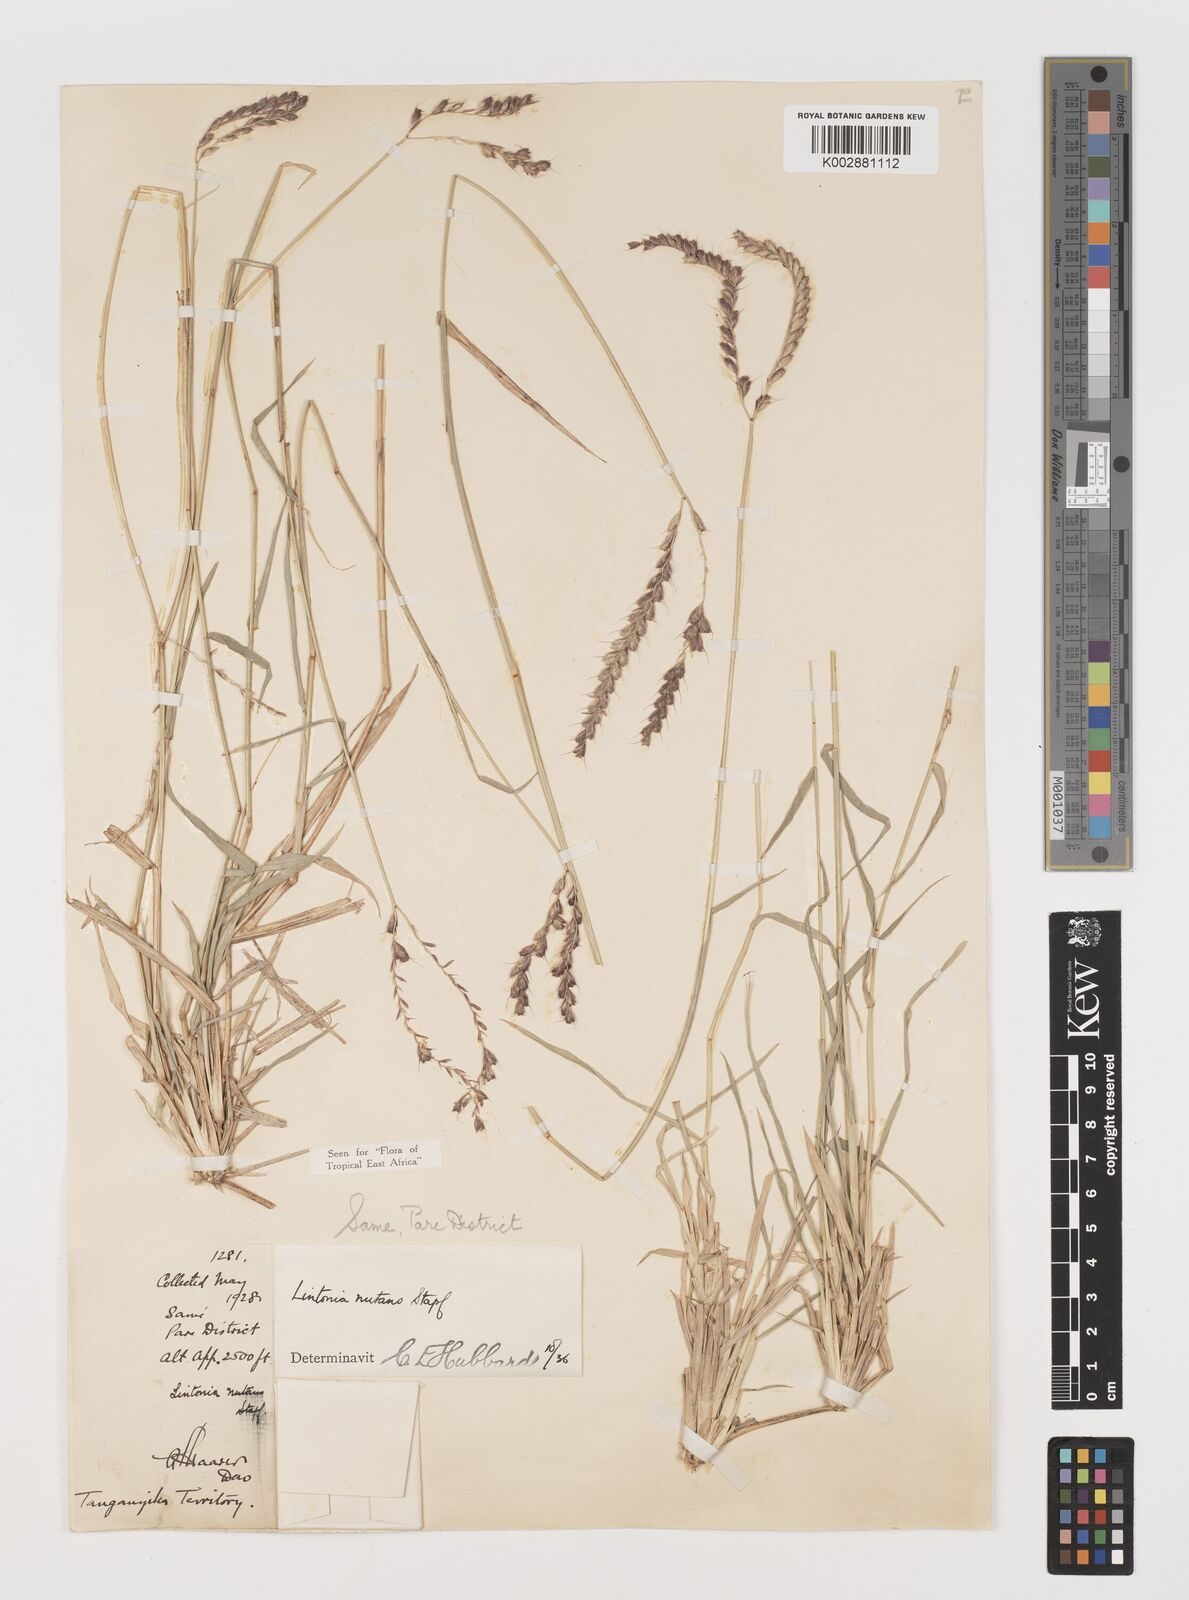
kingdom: Plantae
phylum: Tracheophyta
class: Liliopsida
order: Poales
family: Poaceae
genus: Chloris
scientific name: Chloris nutans
